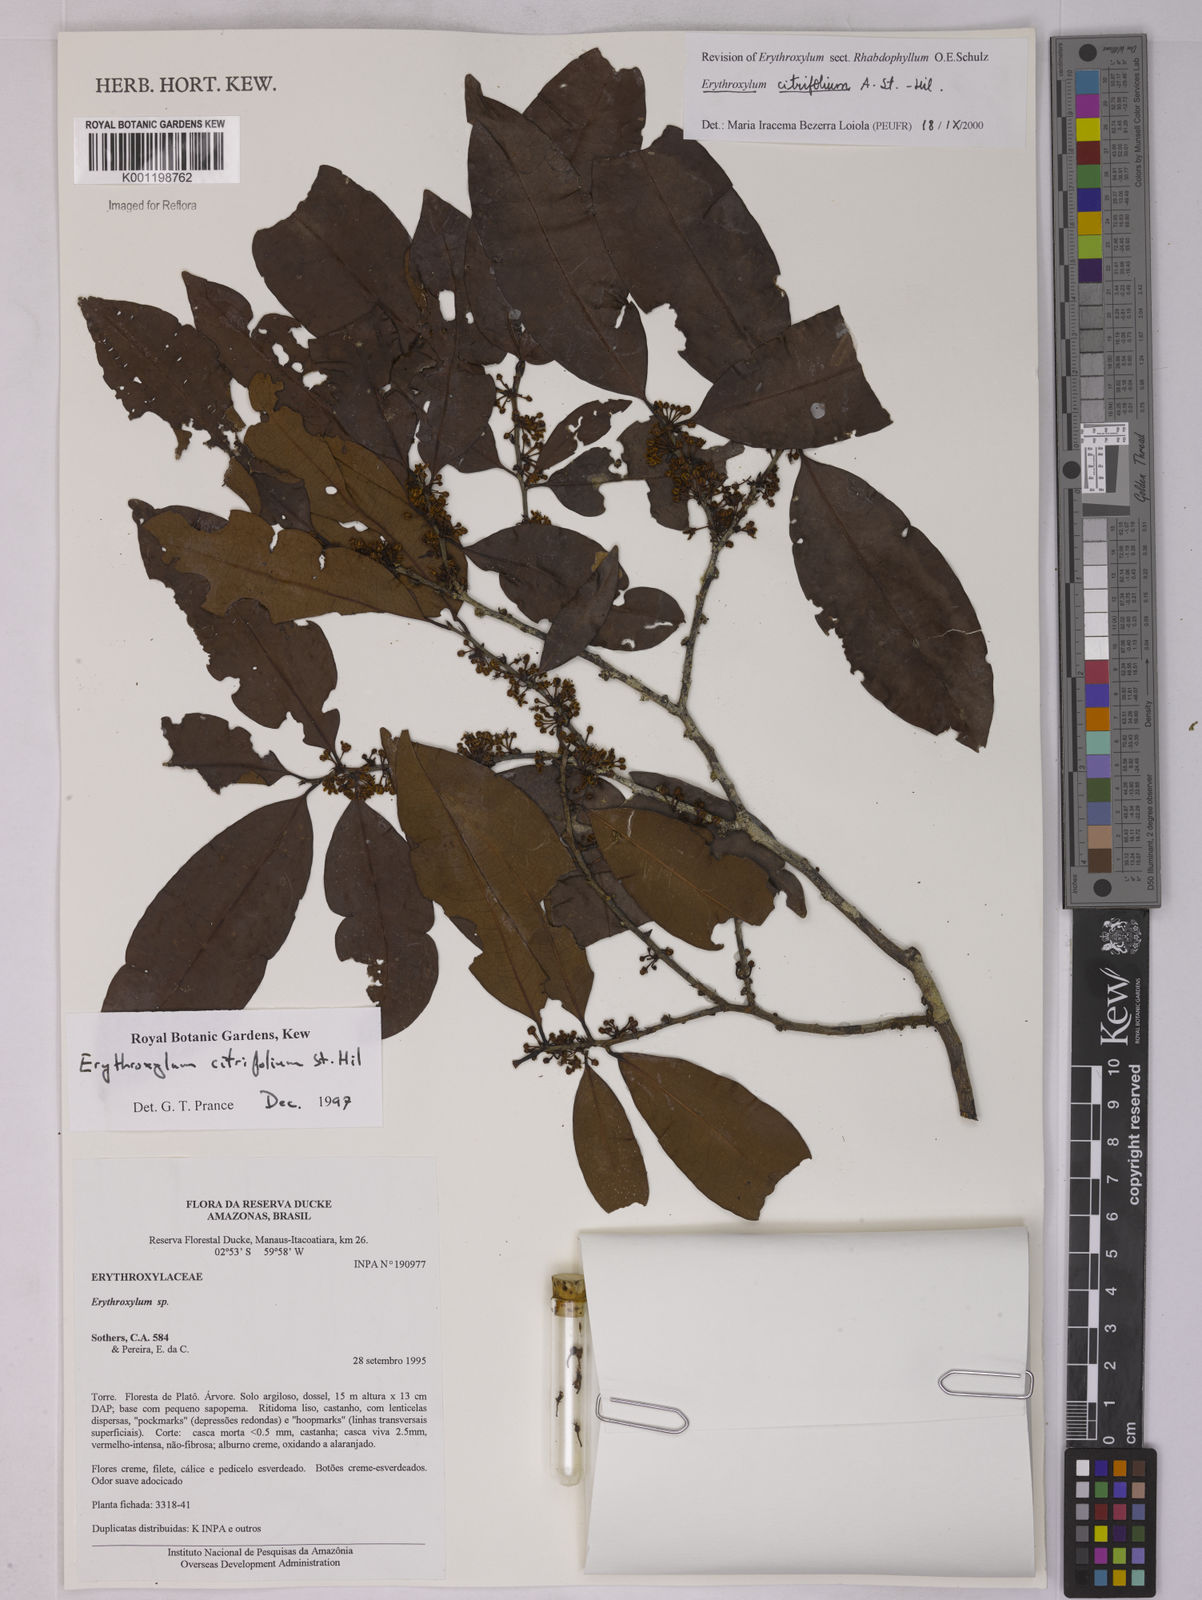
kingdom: Plantae
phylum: Tracheophyta
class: Magnoliopsida
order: Malpighiales
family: Erythroxylaceae
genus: Erythroxylum
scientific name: Erythroxylum citrifolium
